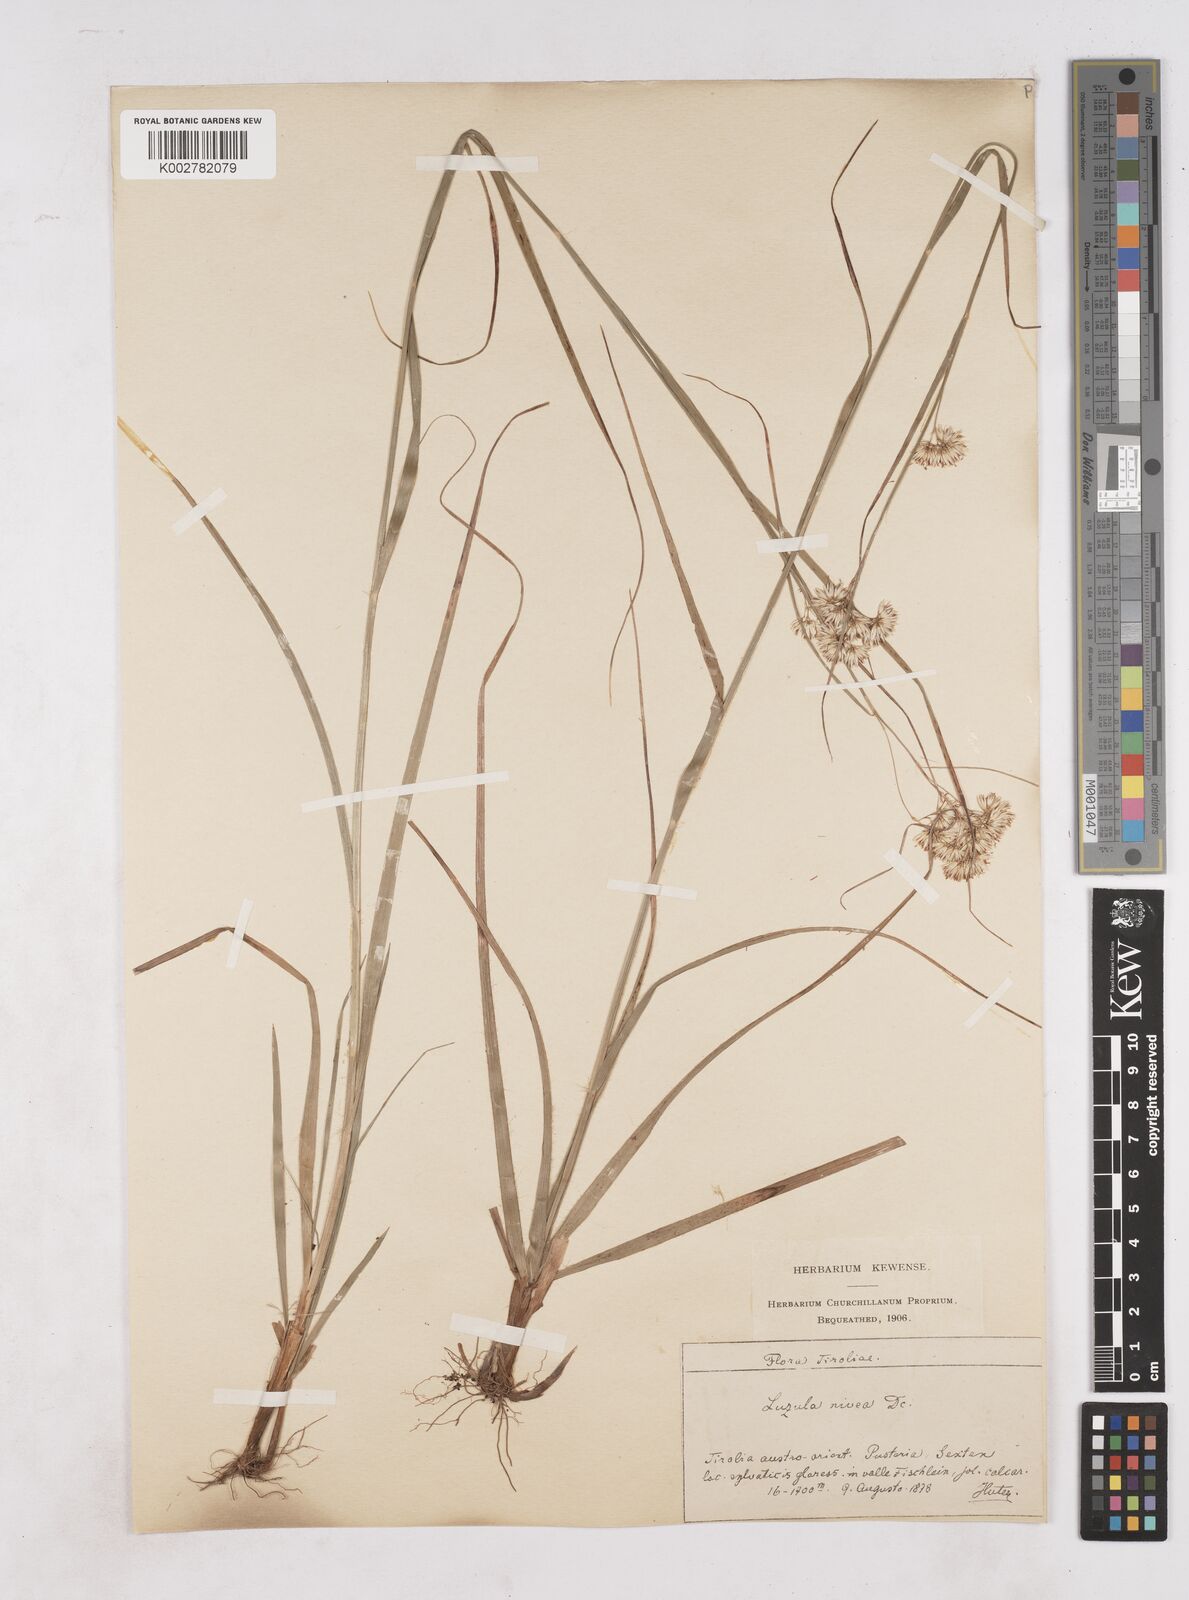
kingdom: Plantae
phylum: Tracheophyta
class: Liliopsida
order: Poales
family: Juncaceae
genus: Luzula
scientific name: Luzula nivea
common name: Snow-white wood-rush
